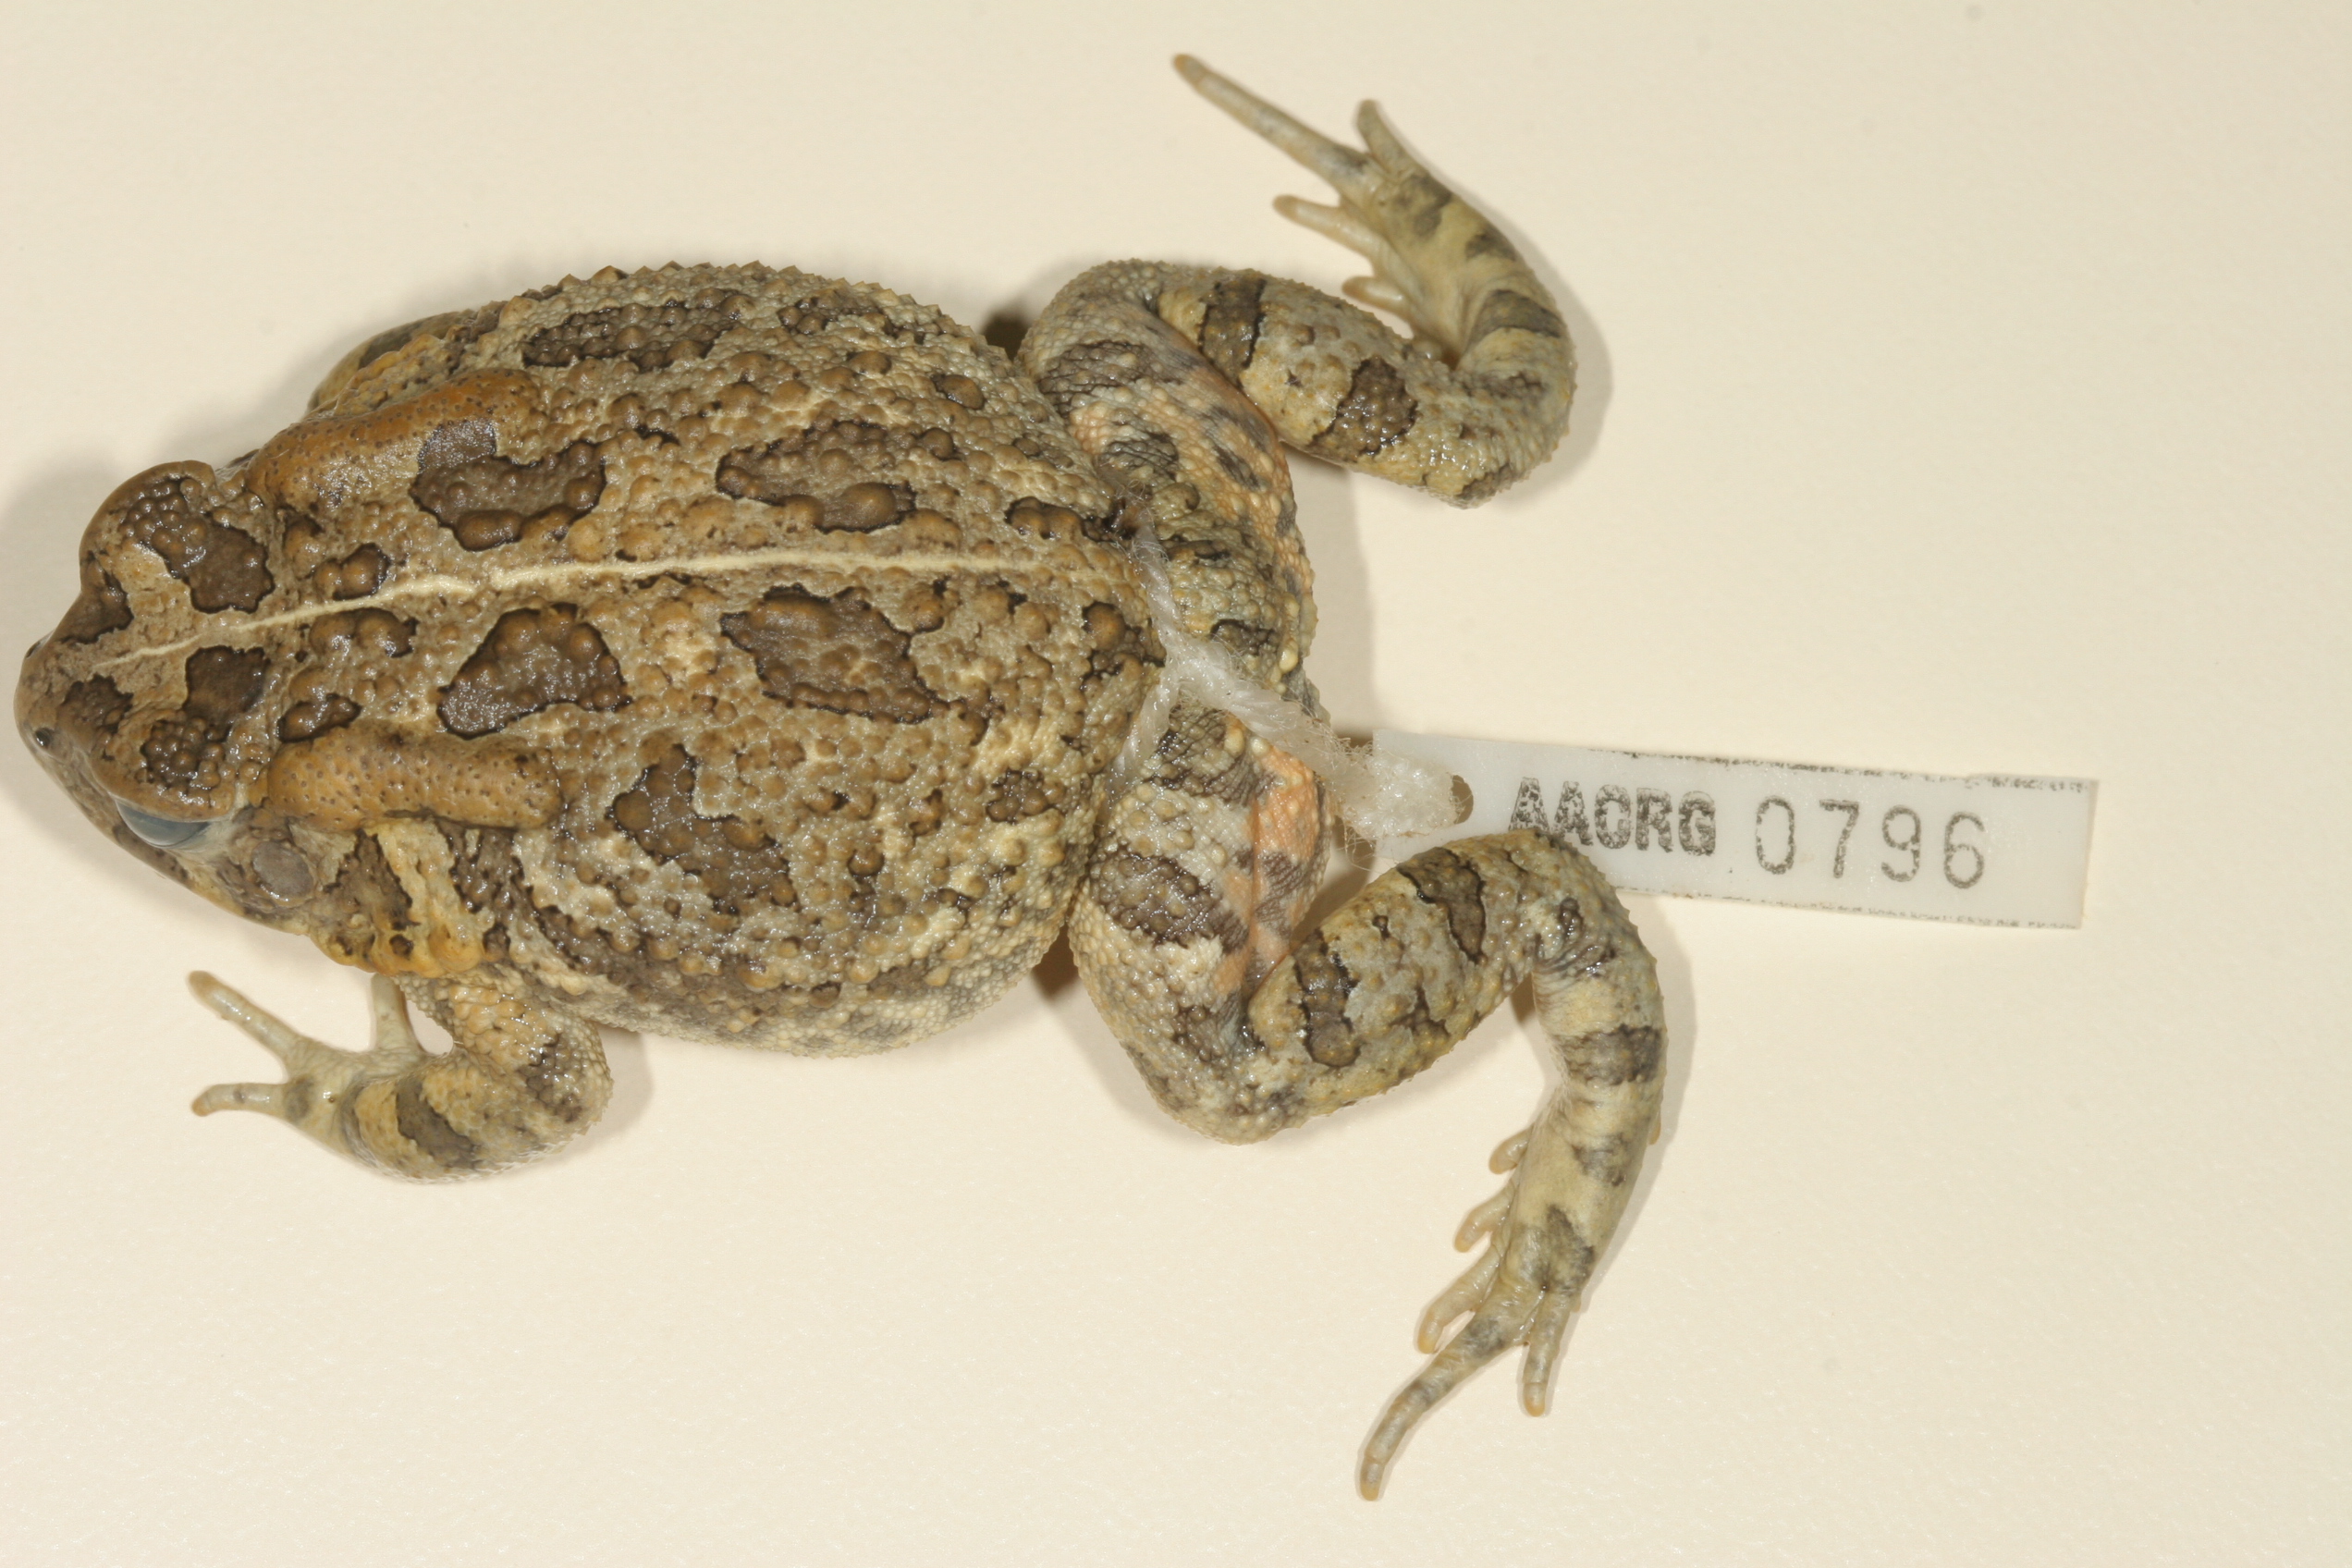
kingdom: Animalia
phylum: Chordata
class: Amphibia
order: Anura
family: Bufonidae
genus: Sclerophrys
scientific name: Sclerophrys gutturalis
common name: African common toad
